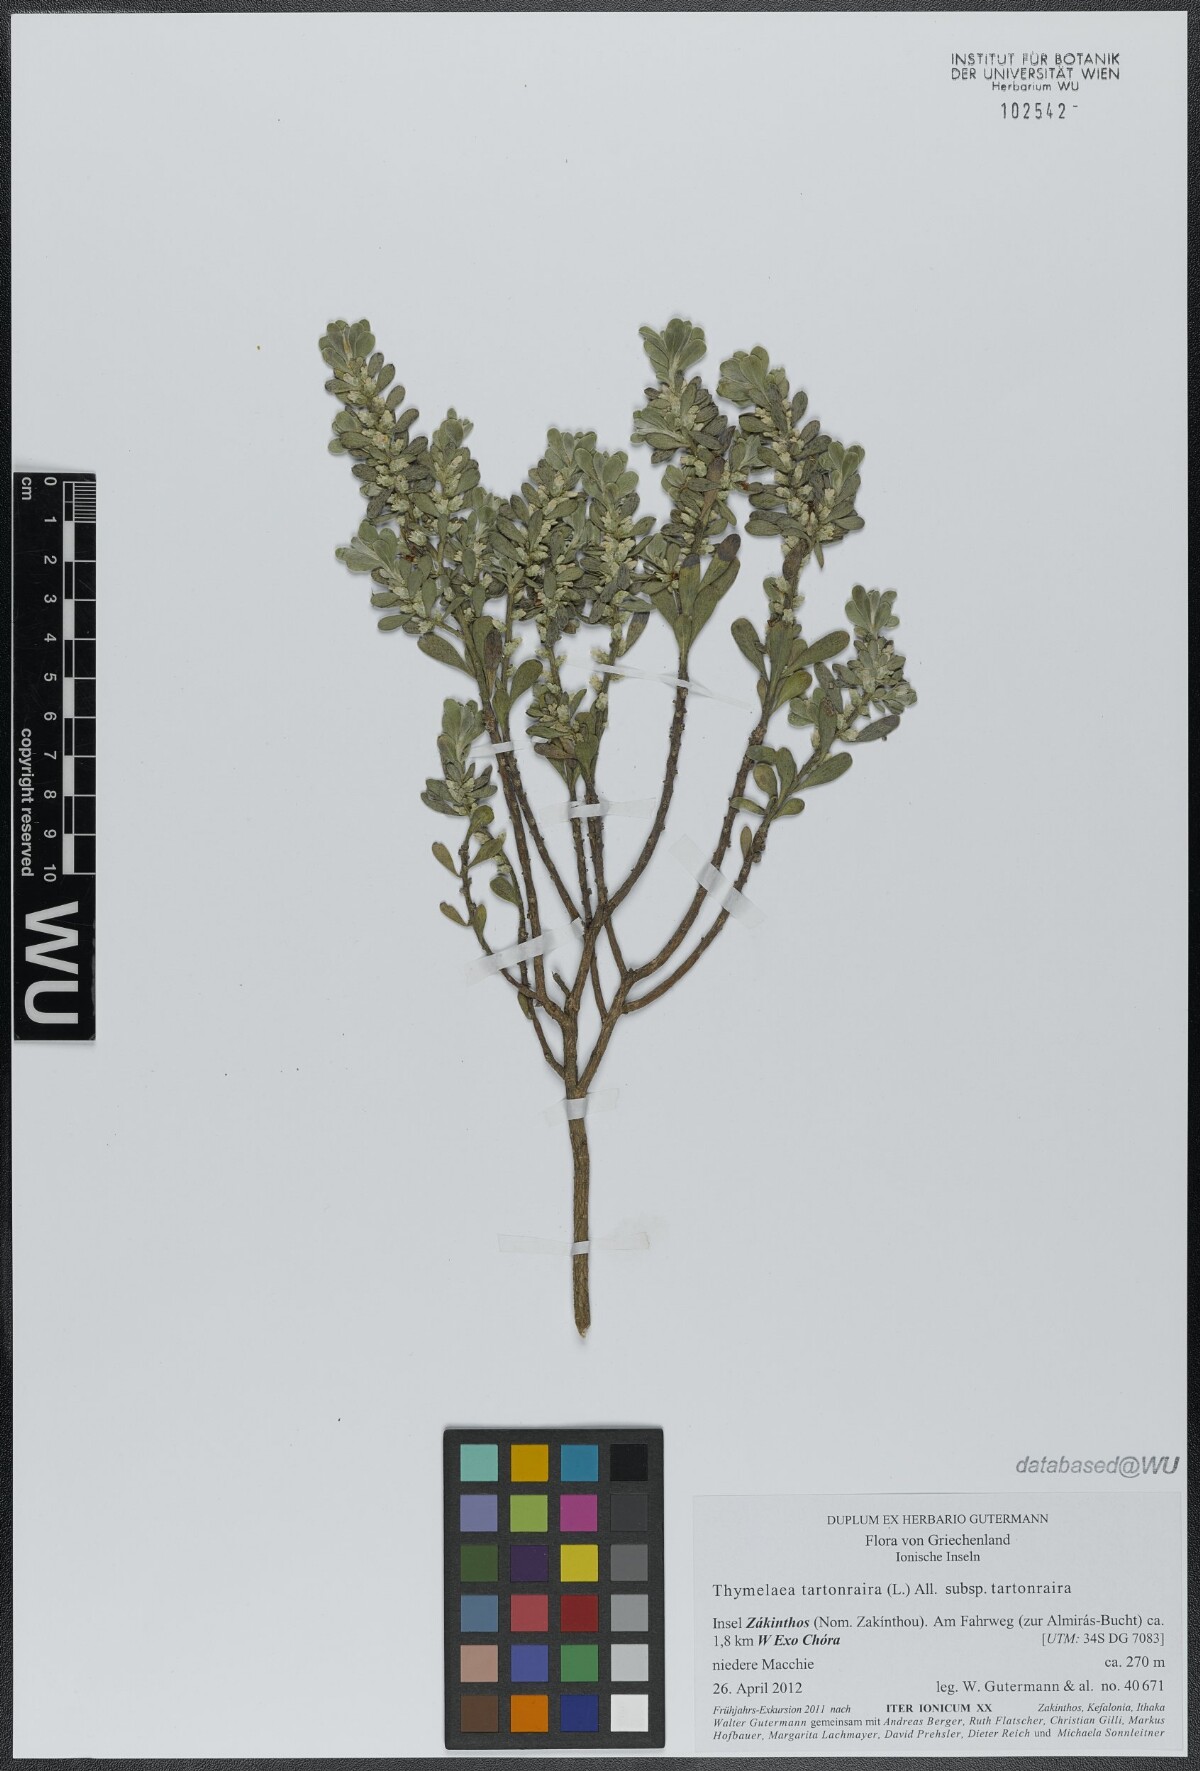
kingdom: Plantae
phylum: Tracheophyta
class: Magnoliopsida
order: Malvales
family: Thymelaeaceae
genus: Thymelaea
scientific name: Thymelaea tartonraira
